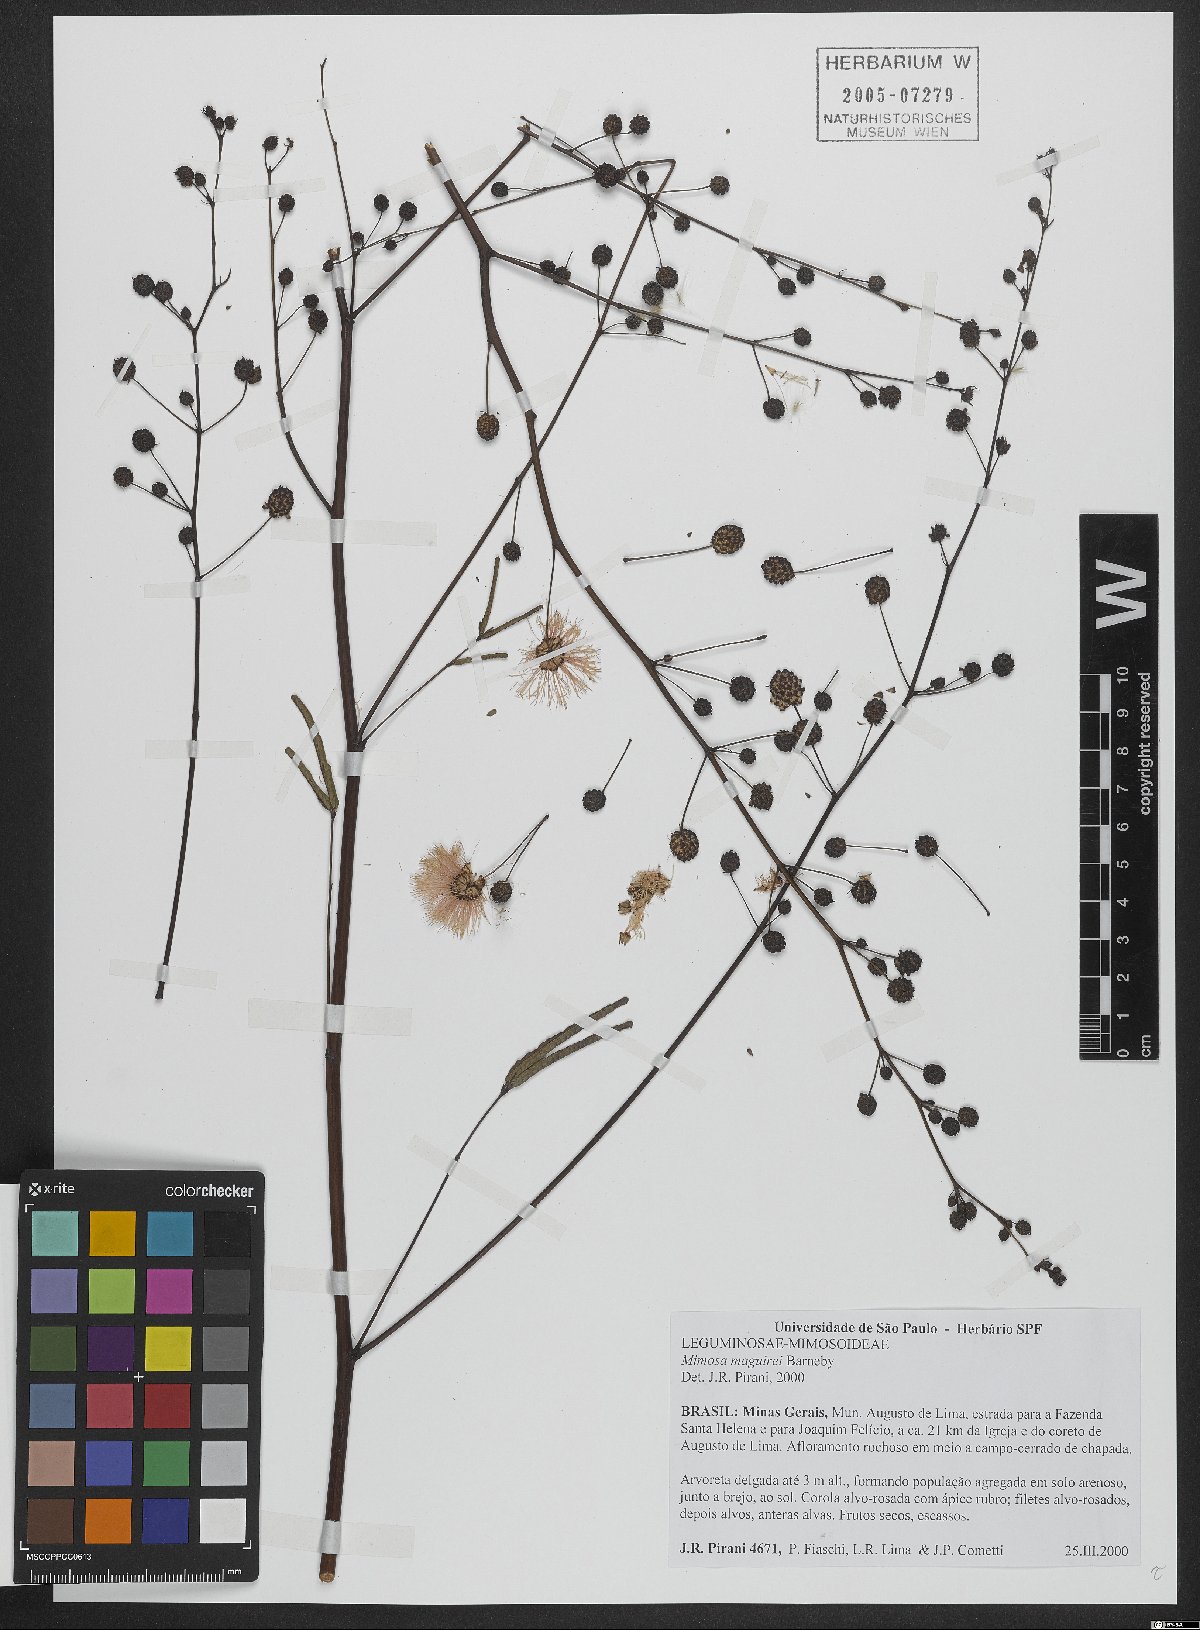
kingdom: Plantae
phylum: Tracheophyta
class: Magnoliopsida
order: Fabales
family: Fabaceae
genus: Mimosa
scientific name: Mimosa maguirei
